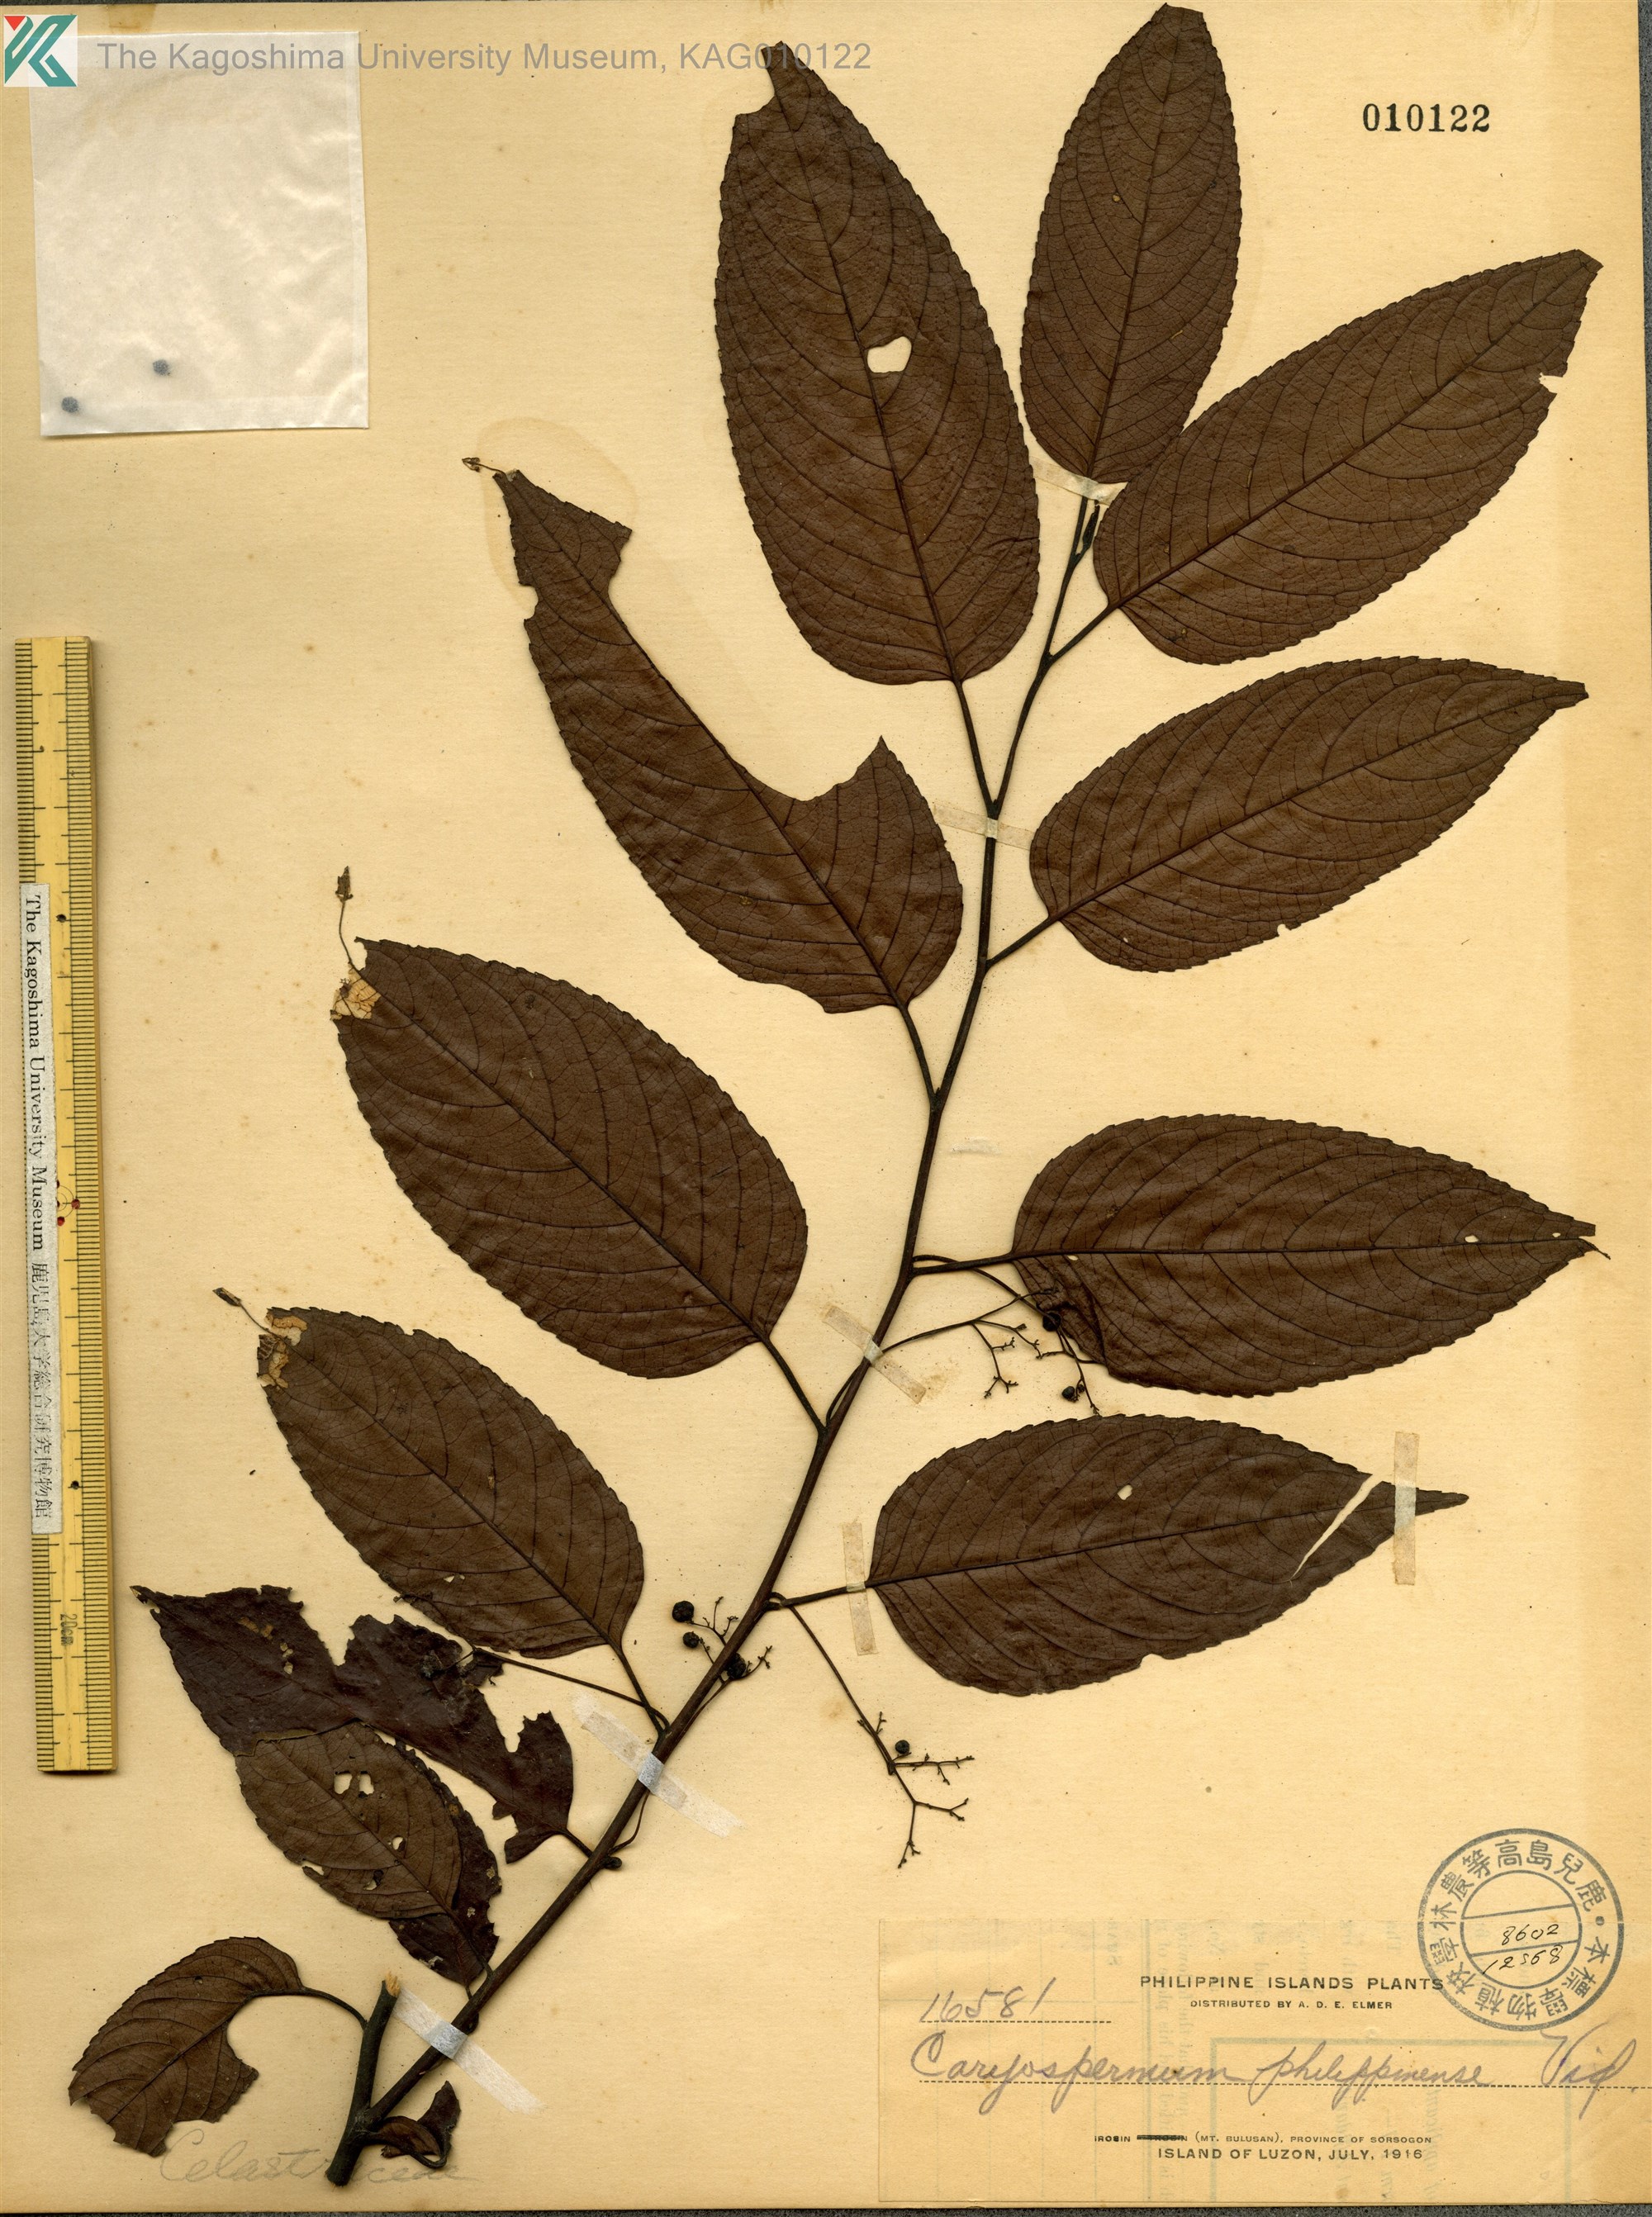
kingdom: Plantae
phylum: Tracheophyta
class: Magnoliopsida
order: Celastrales
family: Celastraceae
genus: Paxistima
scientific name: Paxistima myrsinites
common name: Mountain-lover
